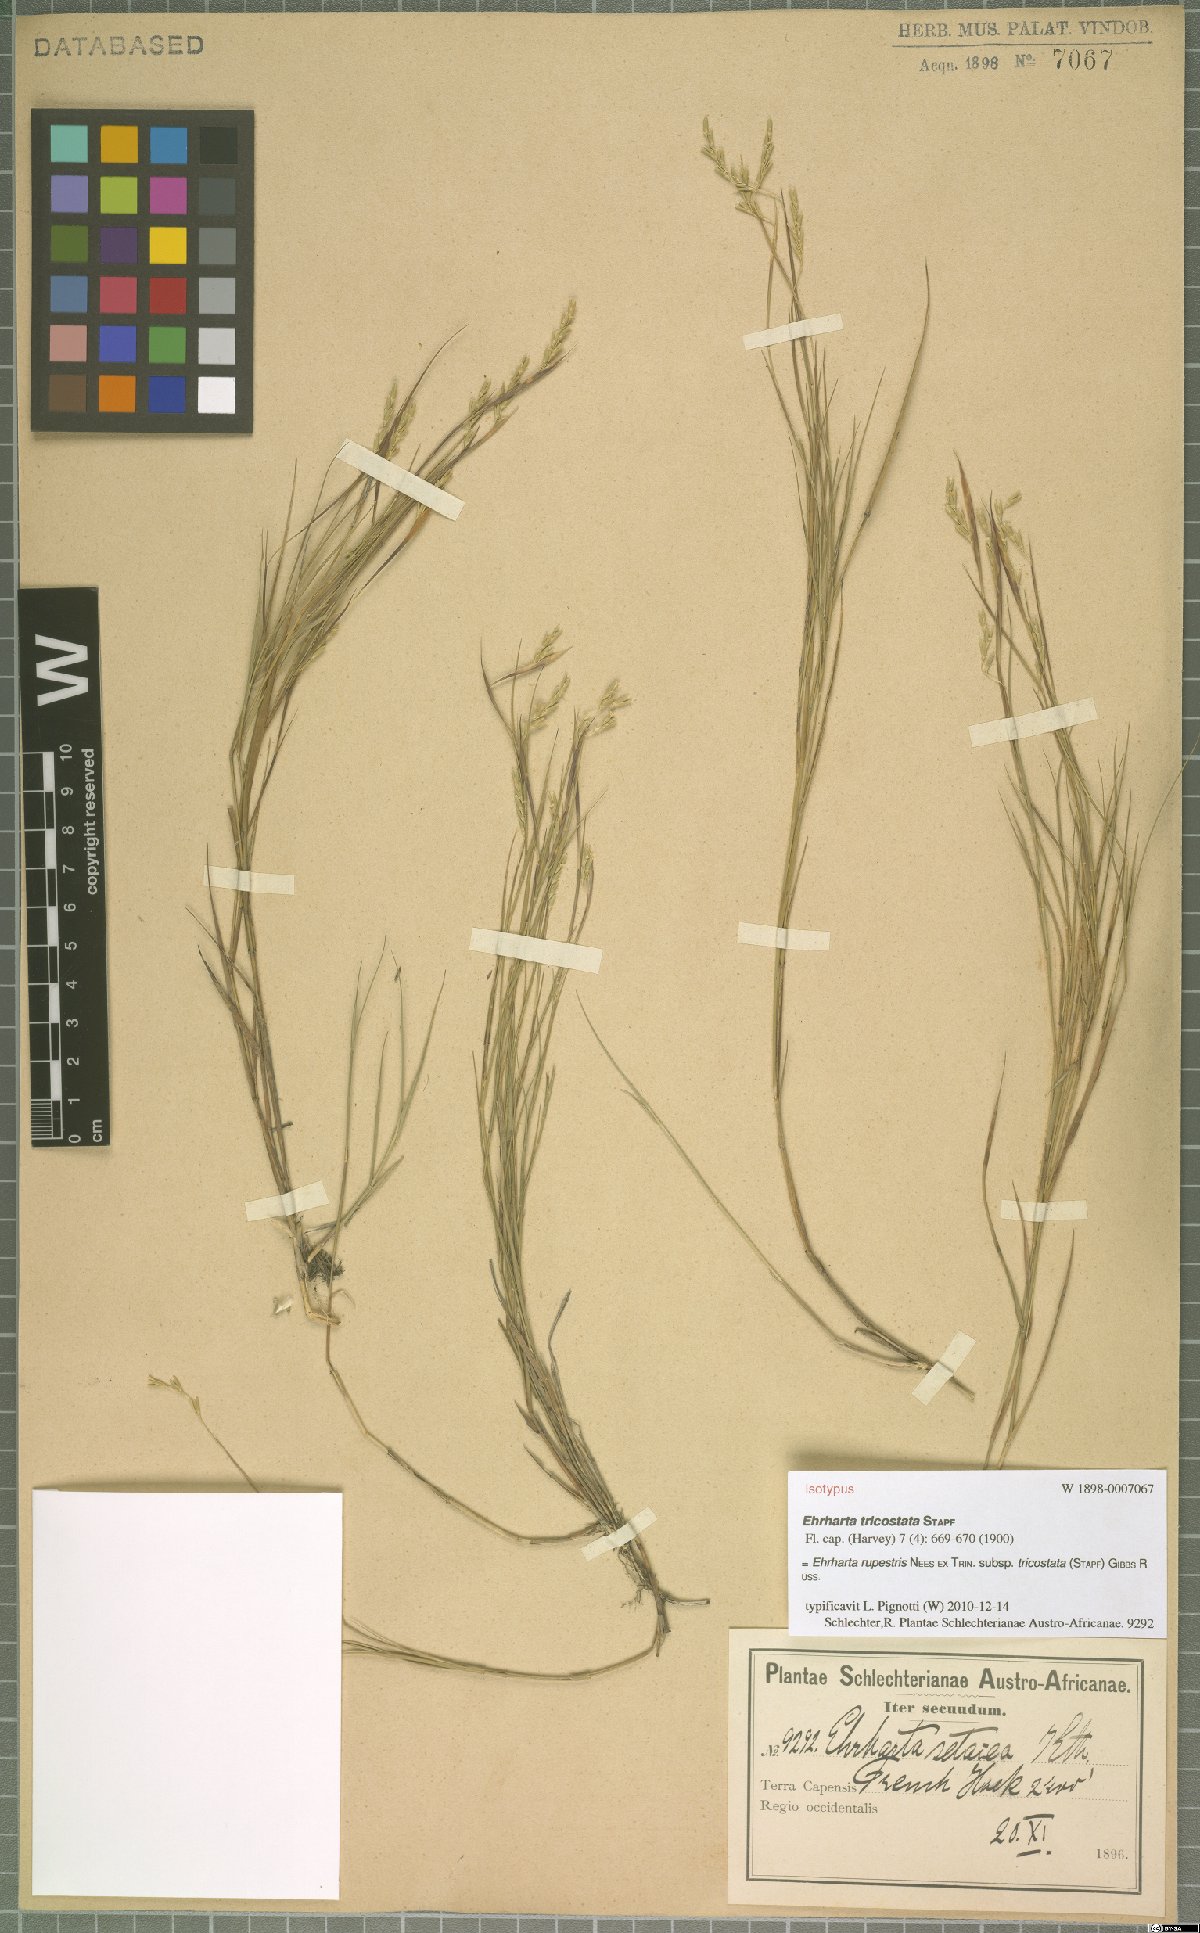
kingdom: Plantae
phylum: Tracheophyta
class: Liliopsida
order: Poales
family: Poaceae
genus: Ehrharta
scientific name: Ehrharta rupestris
